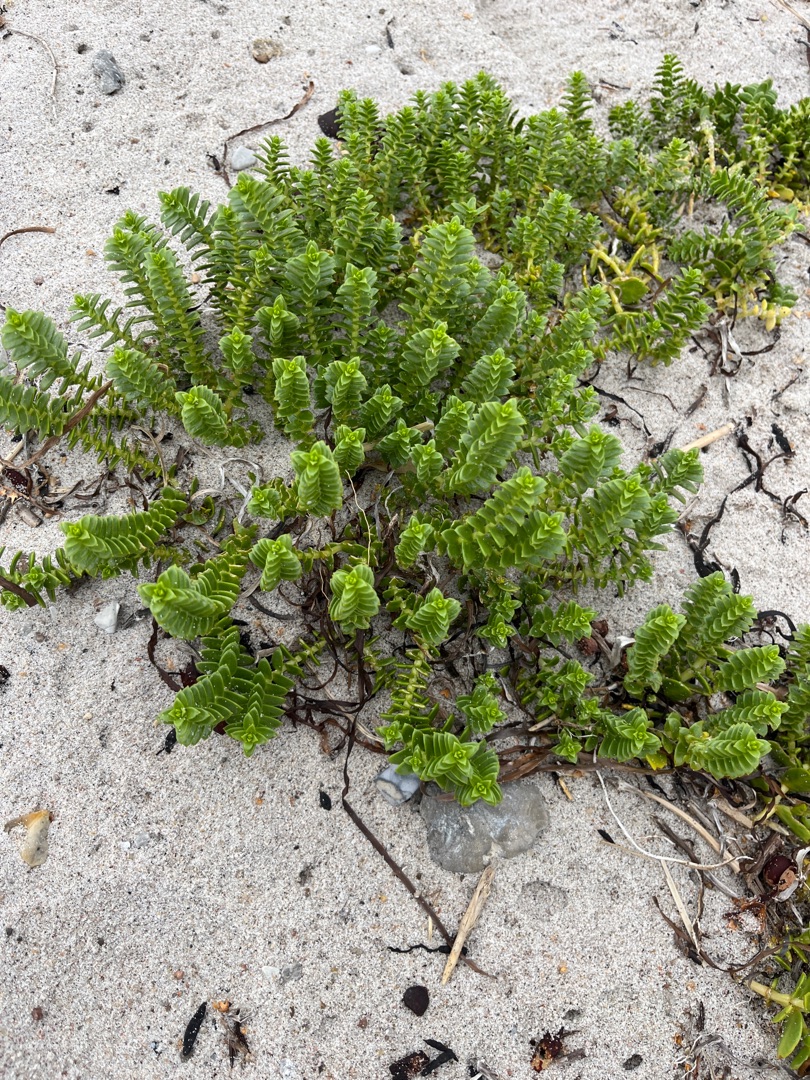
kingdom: Plantae
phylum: Tracheophyta
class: Magnoliopsida
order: Caryophyllales
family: Caryophyllaceae
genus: Honckenya
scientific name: Honckenya peploides
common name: Strandarve
